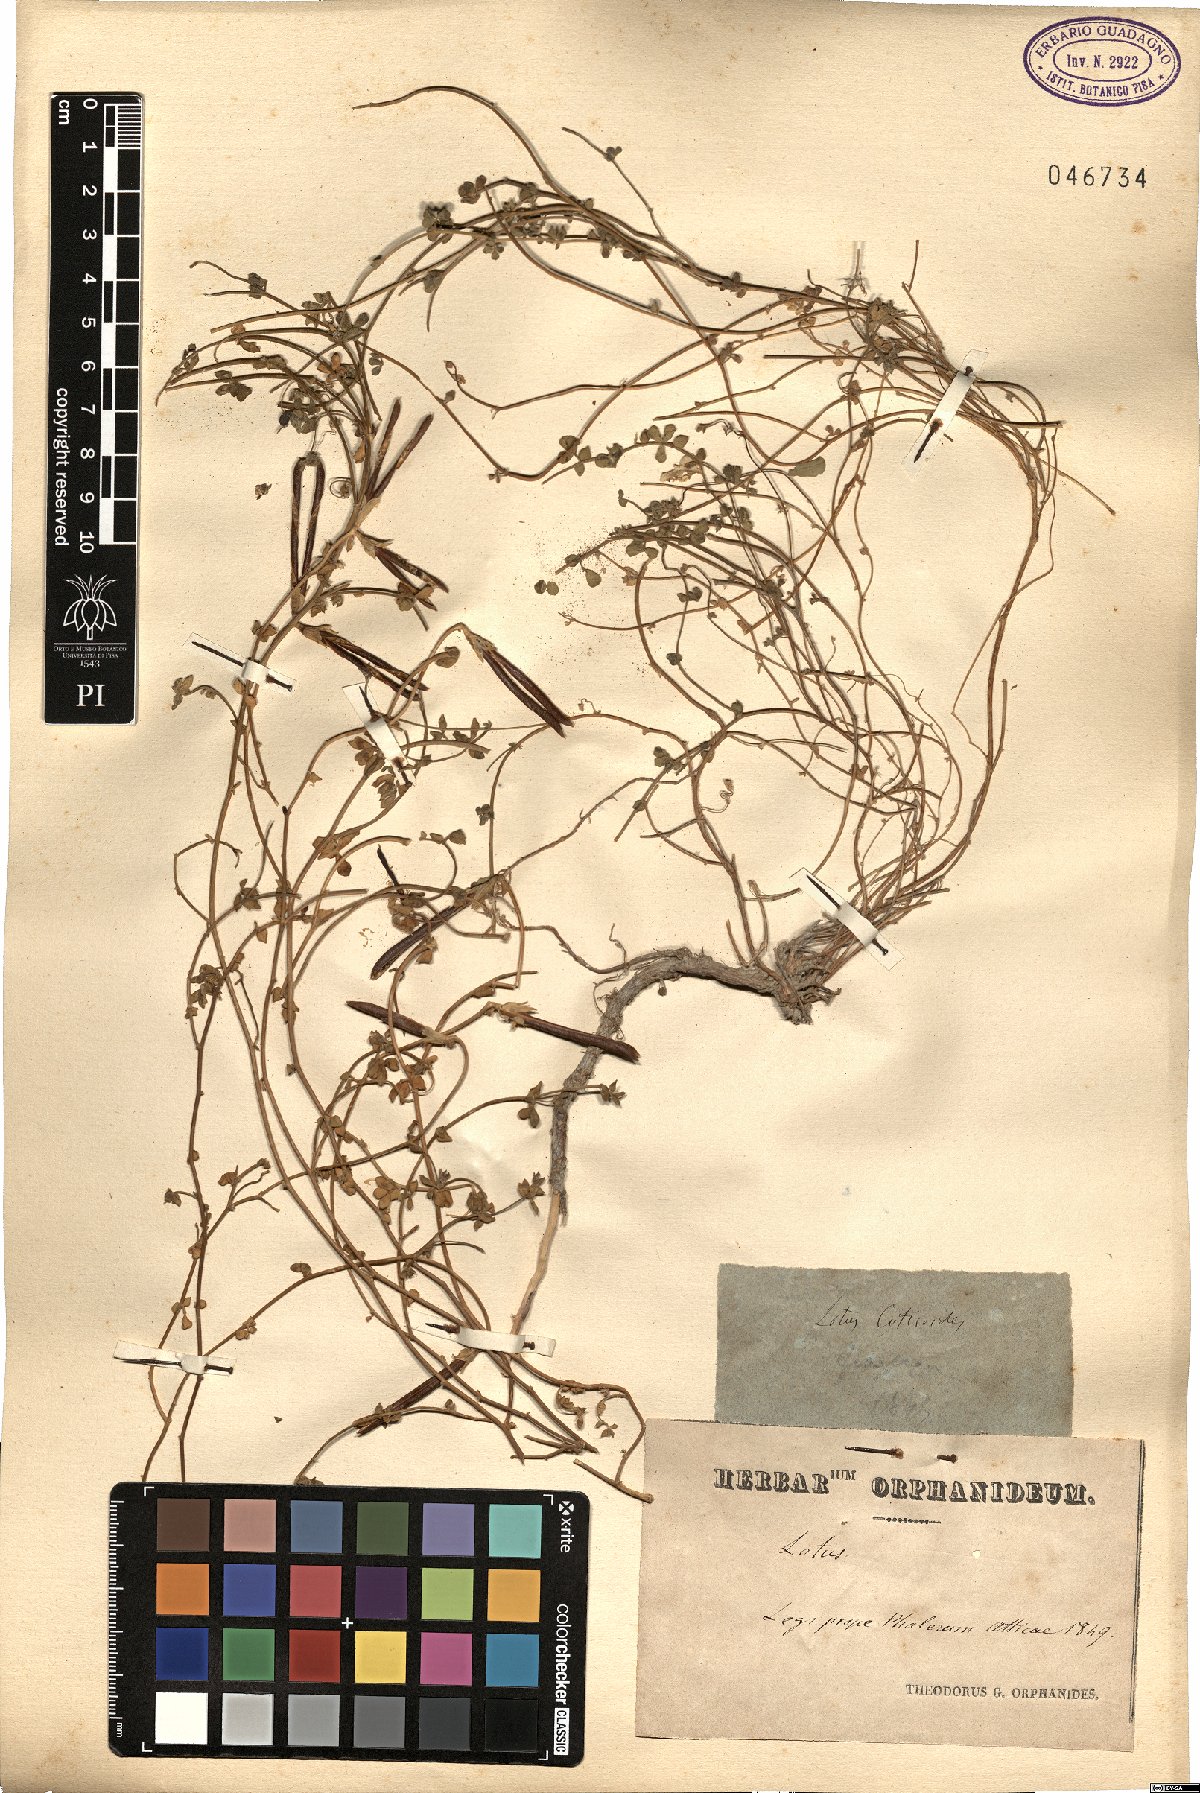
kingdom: Plantae
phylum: Tracheophyta
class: Magnoliopsida
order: Fabales
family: Fabaceae
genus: Lotus
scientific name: Lotus cytisoides
